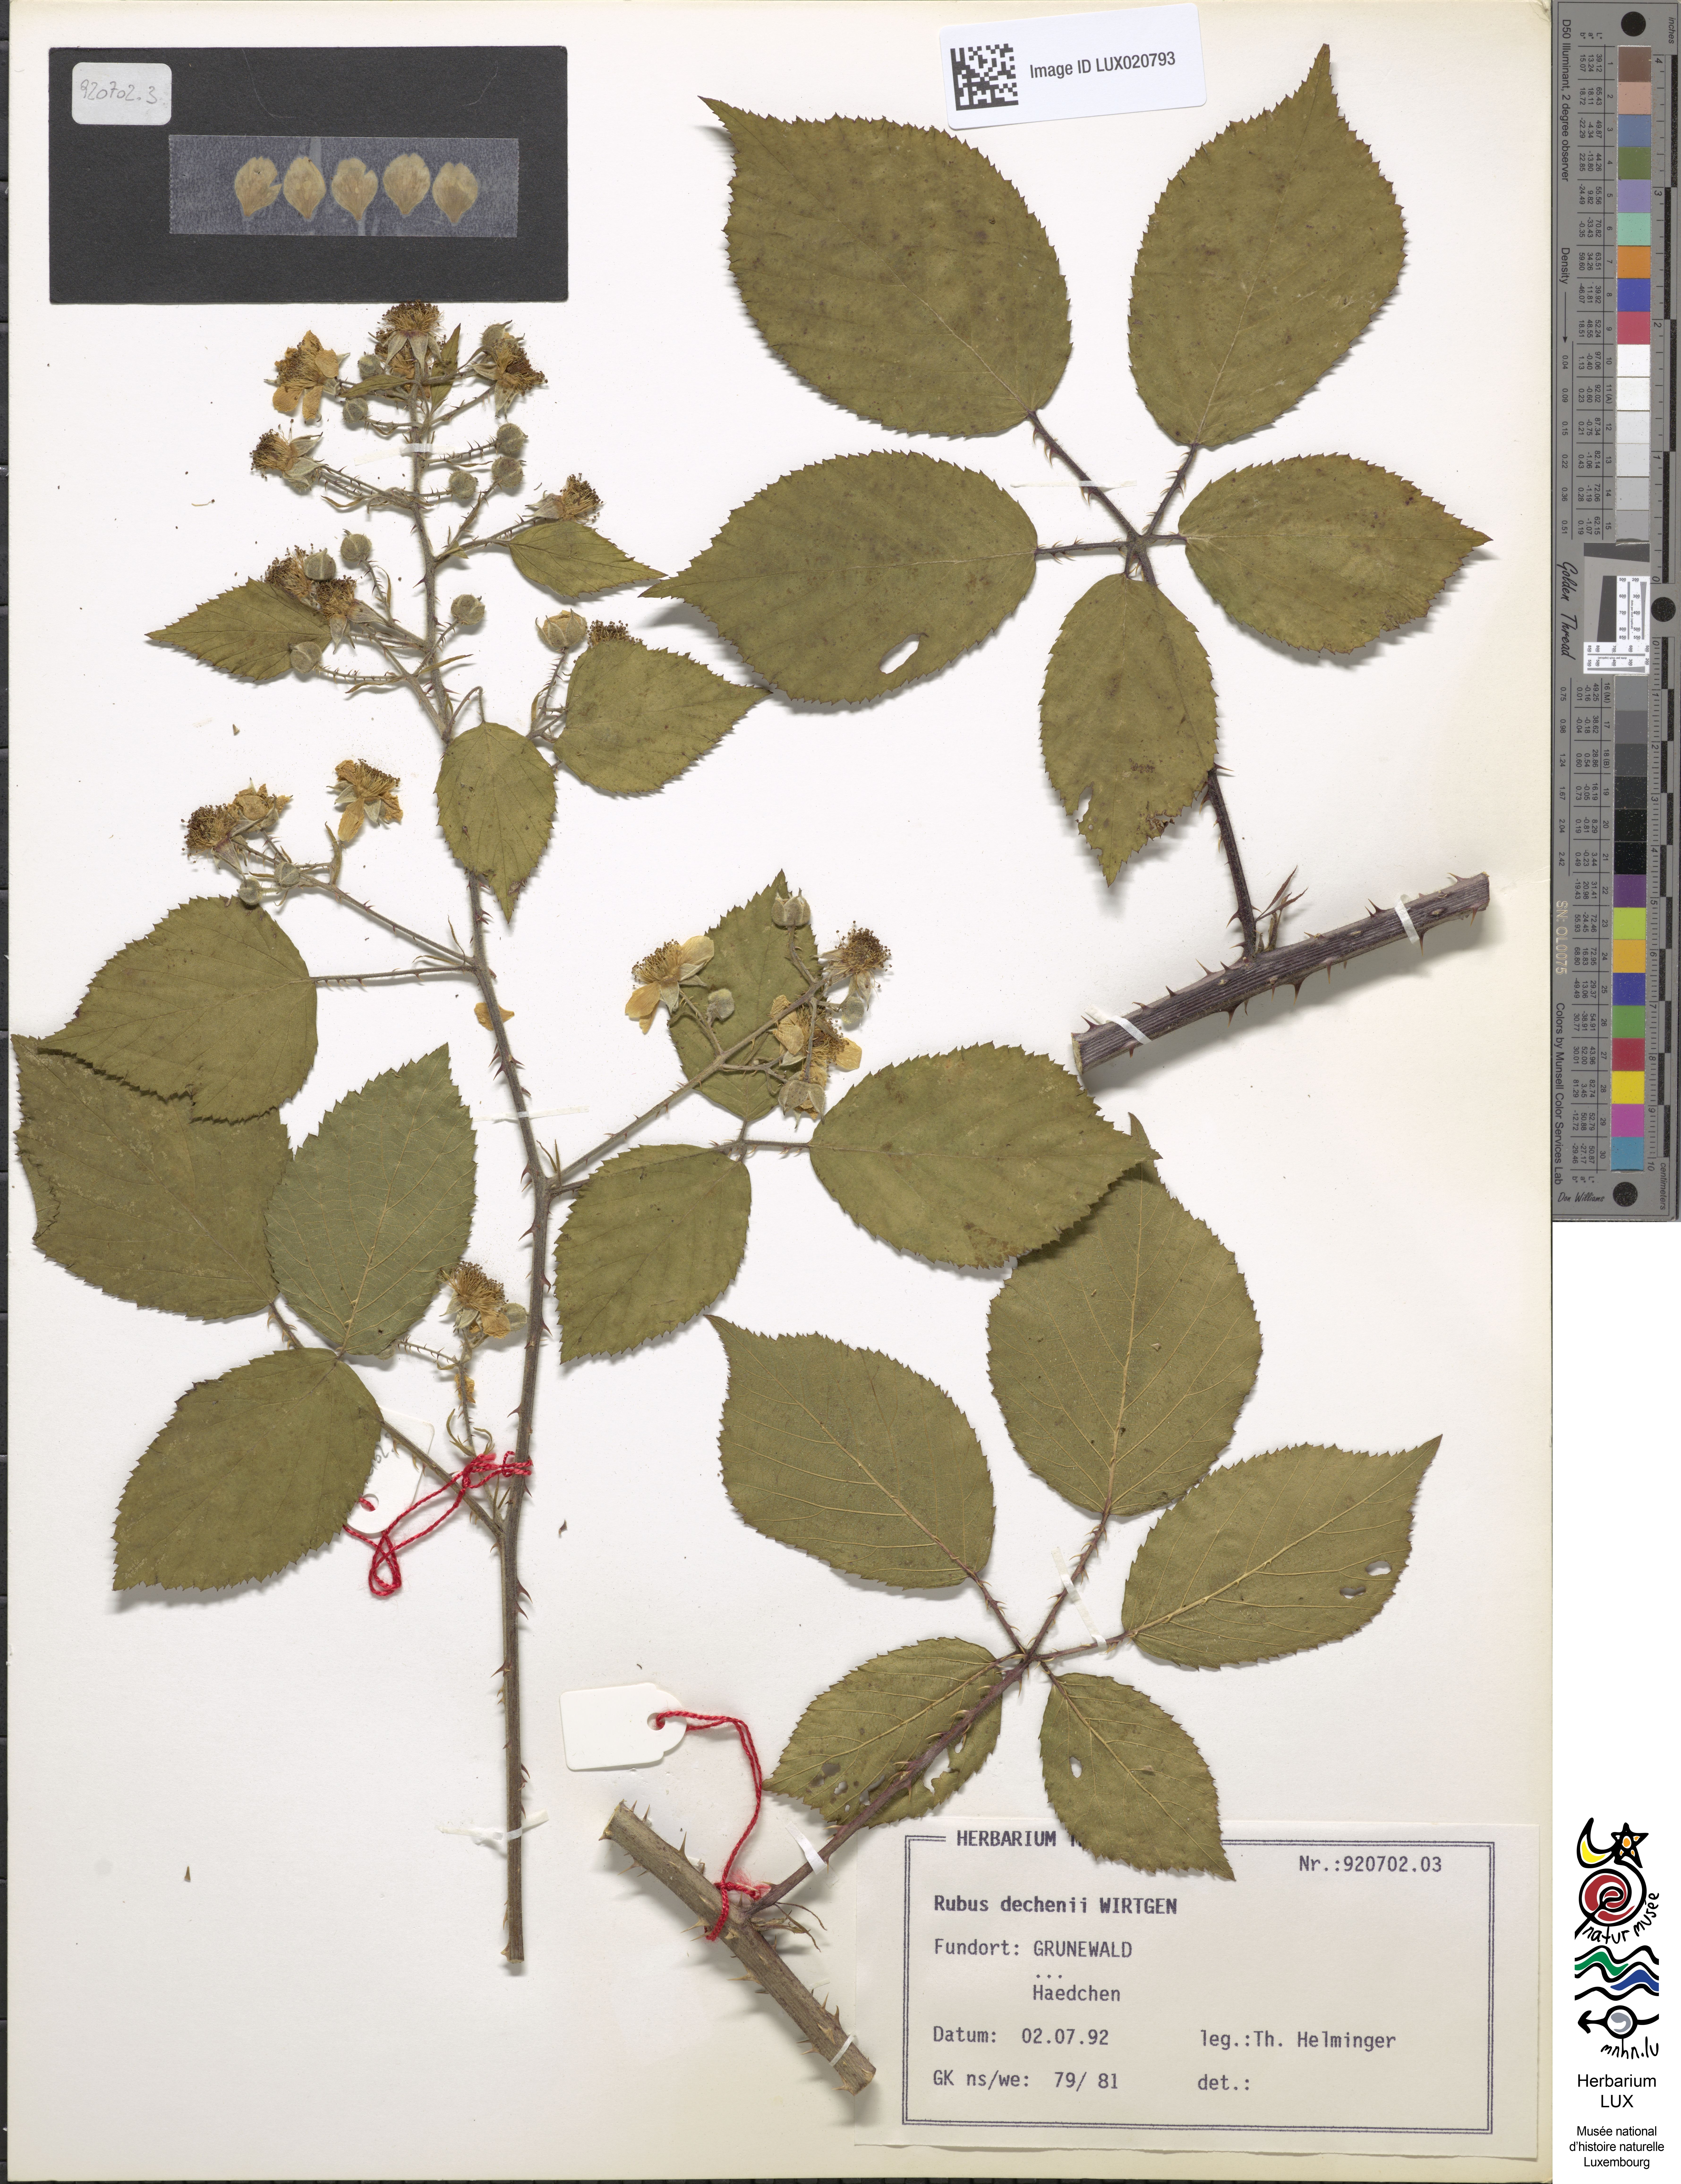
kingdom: Plantae
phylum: Tracheophyta
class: Magnoliopsida
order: Rosales
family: Rosaceae
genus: Rubus
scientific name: Rubus dechenii
